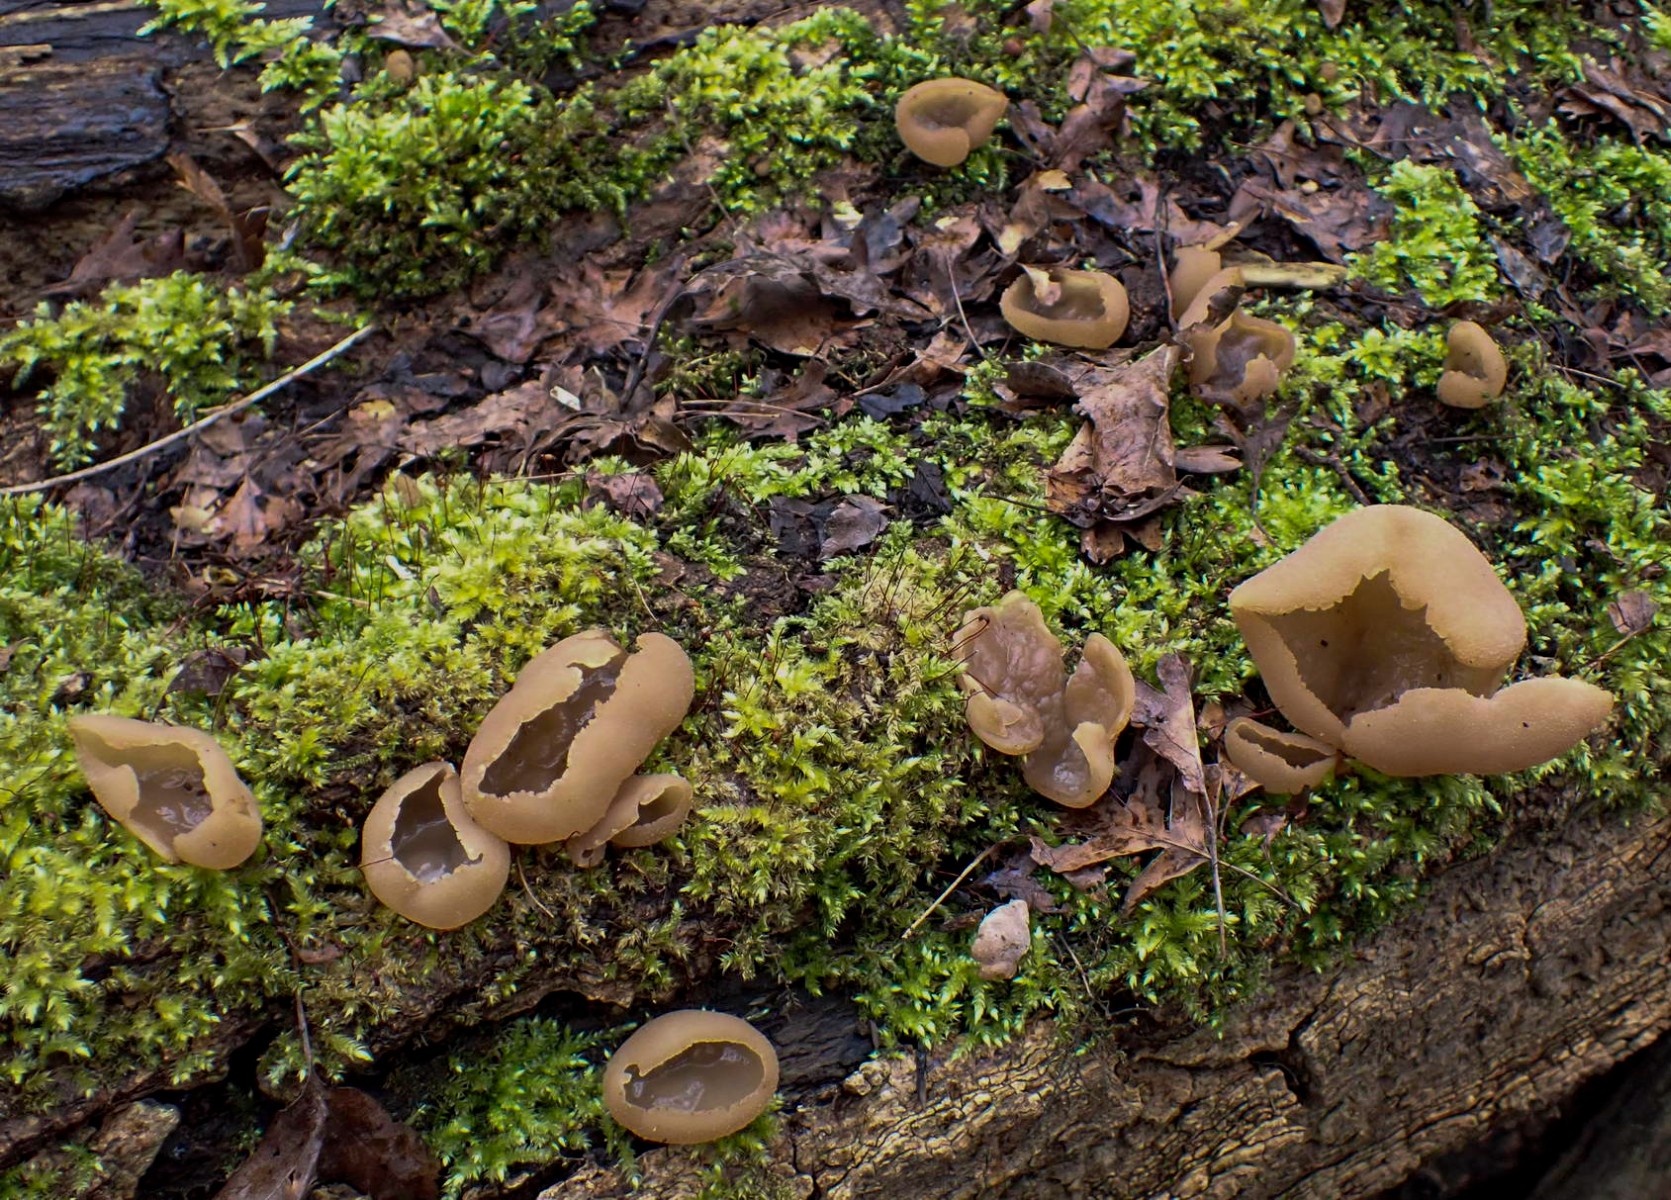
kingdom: Fungi
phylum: Ascomycota
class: Pezizomycetes
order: Pezizales
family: Pezizaceae
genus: Peziza
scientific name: Peziza
